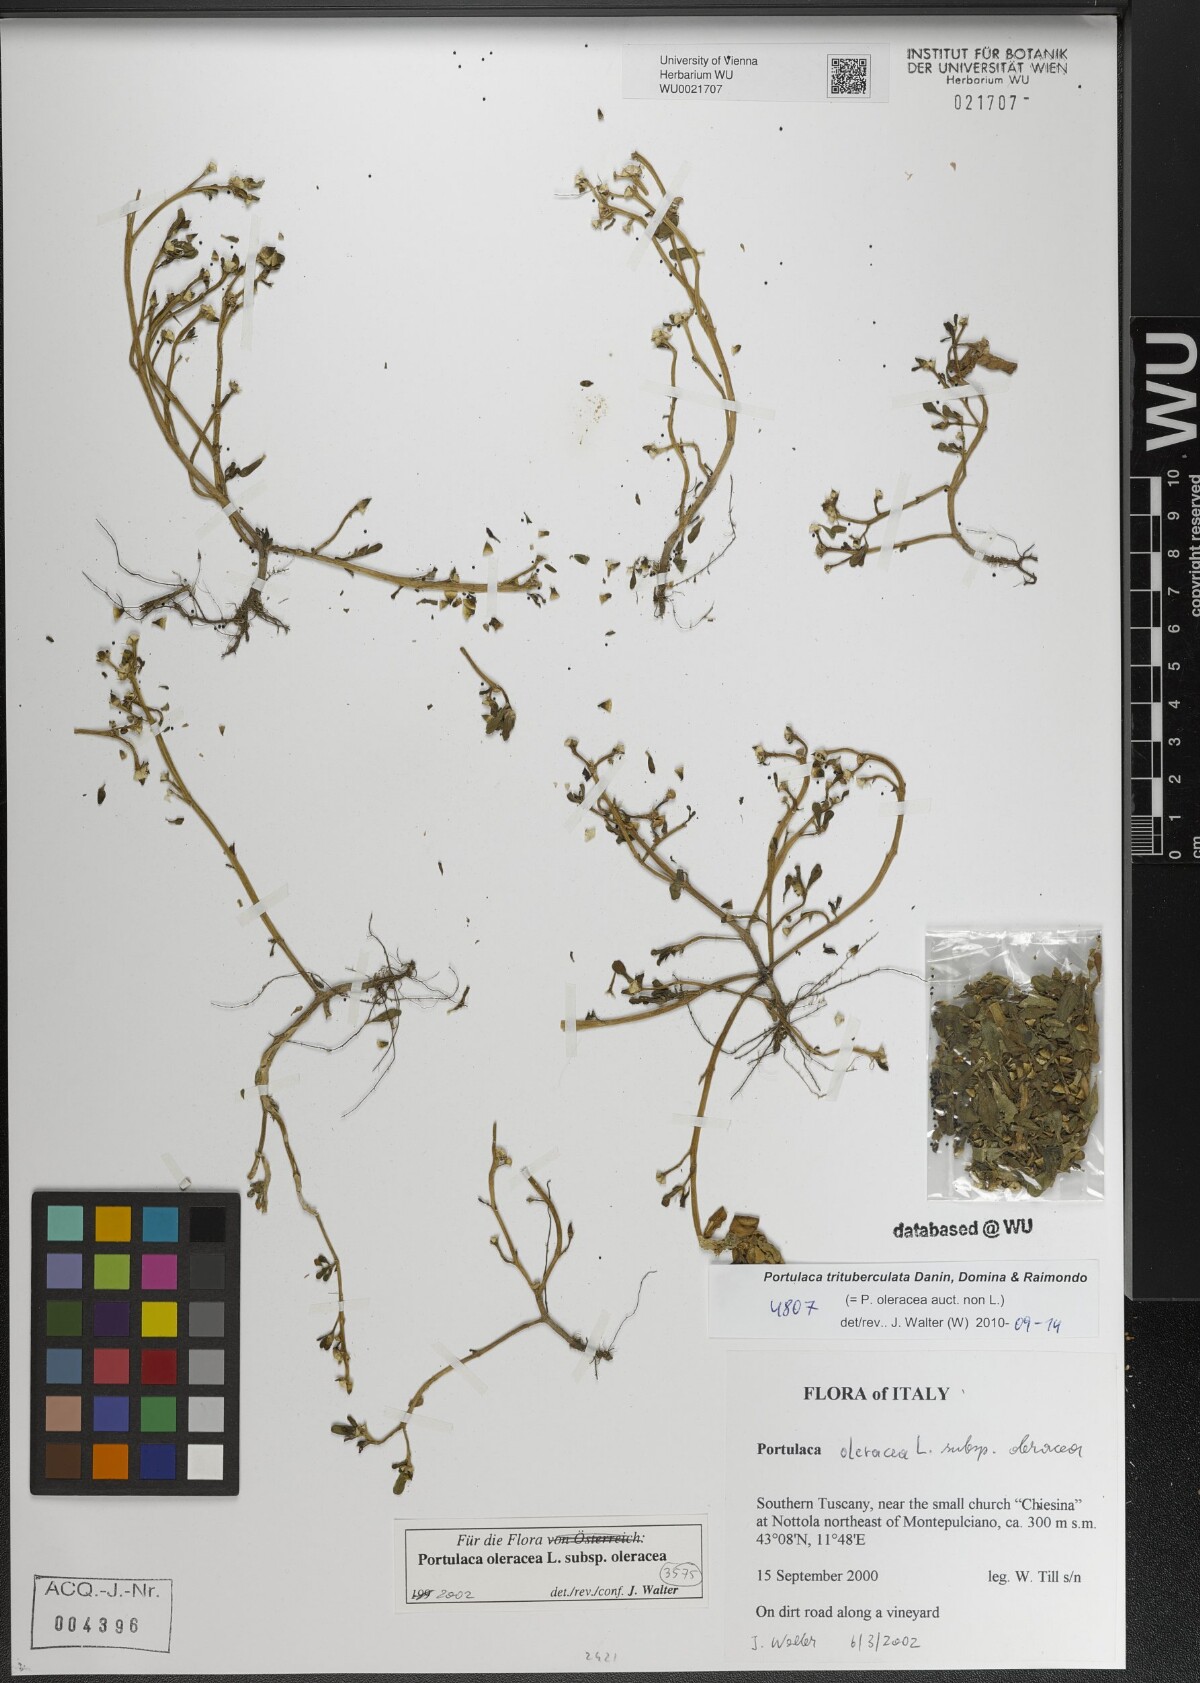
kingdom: Plantae
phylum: Tracheophyta
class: Magnoliopsida
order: Caryophyllales
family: Portulacaceae
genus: Portulaca
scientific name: Portulaca trituberculata
